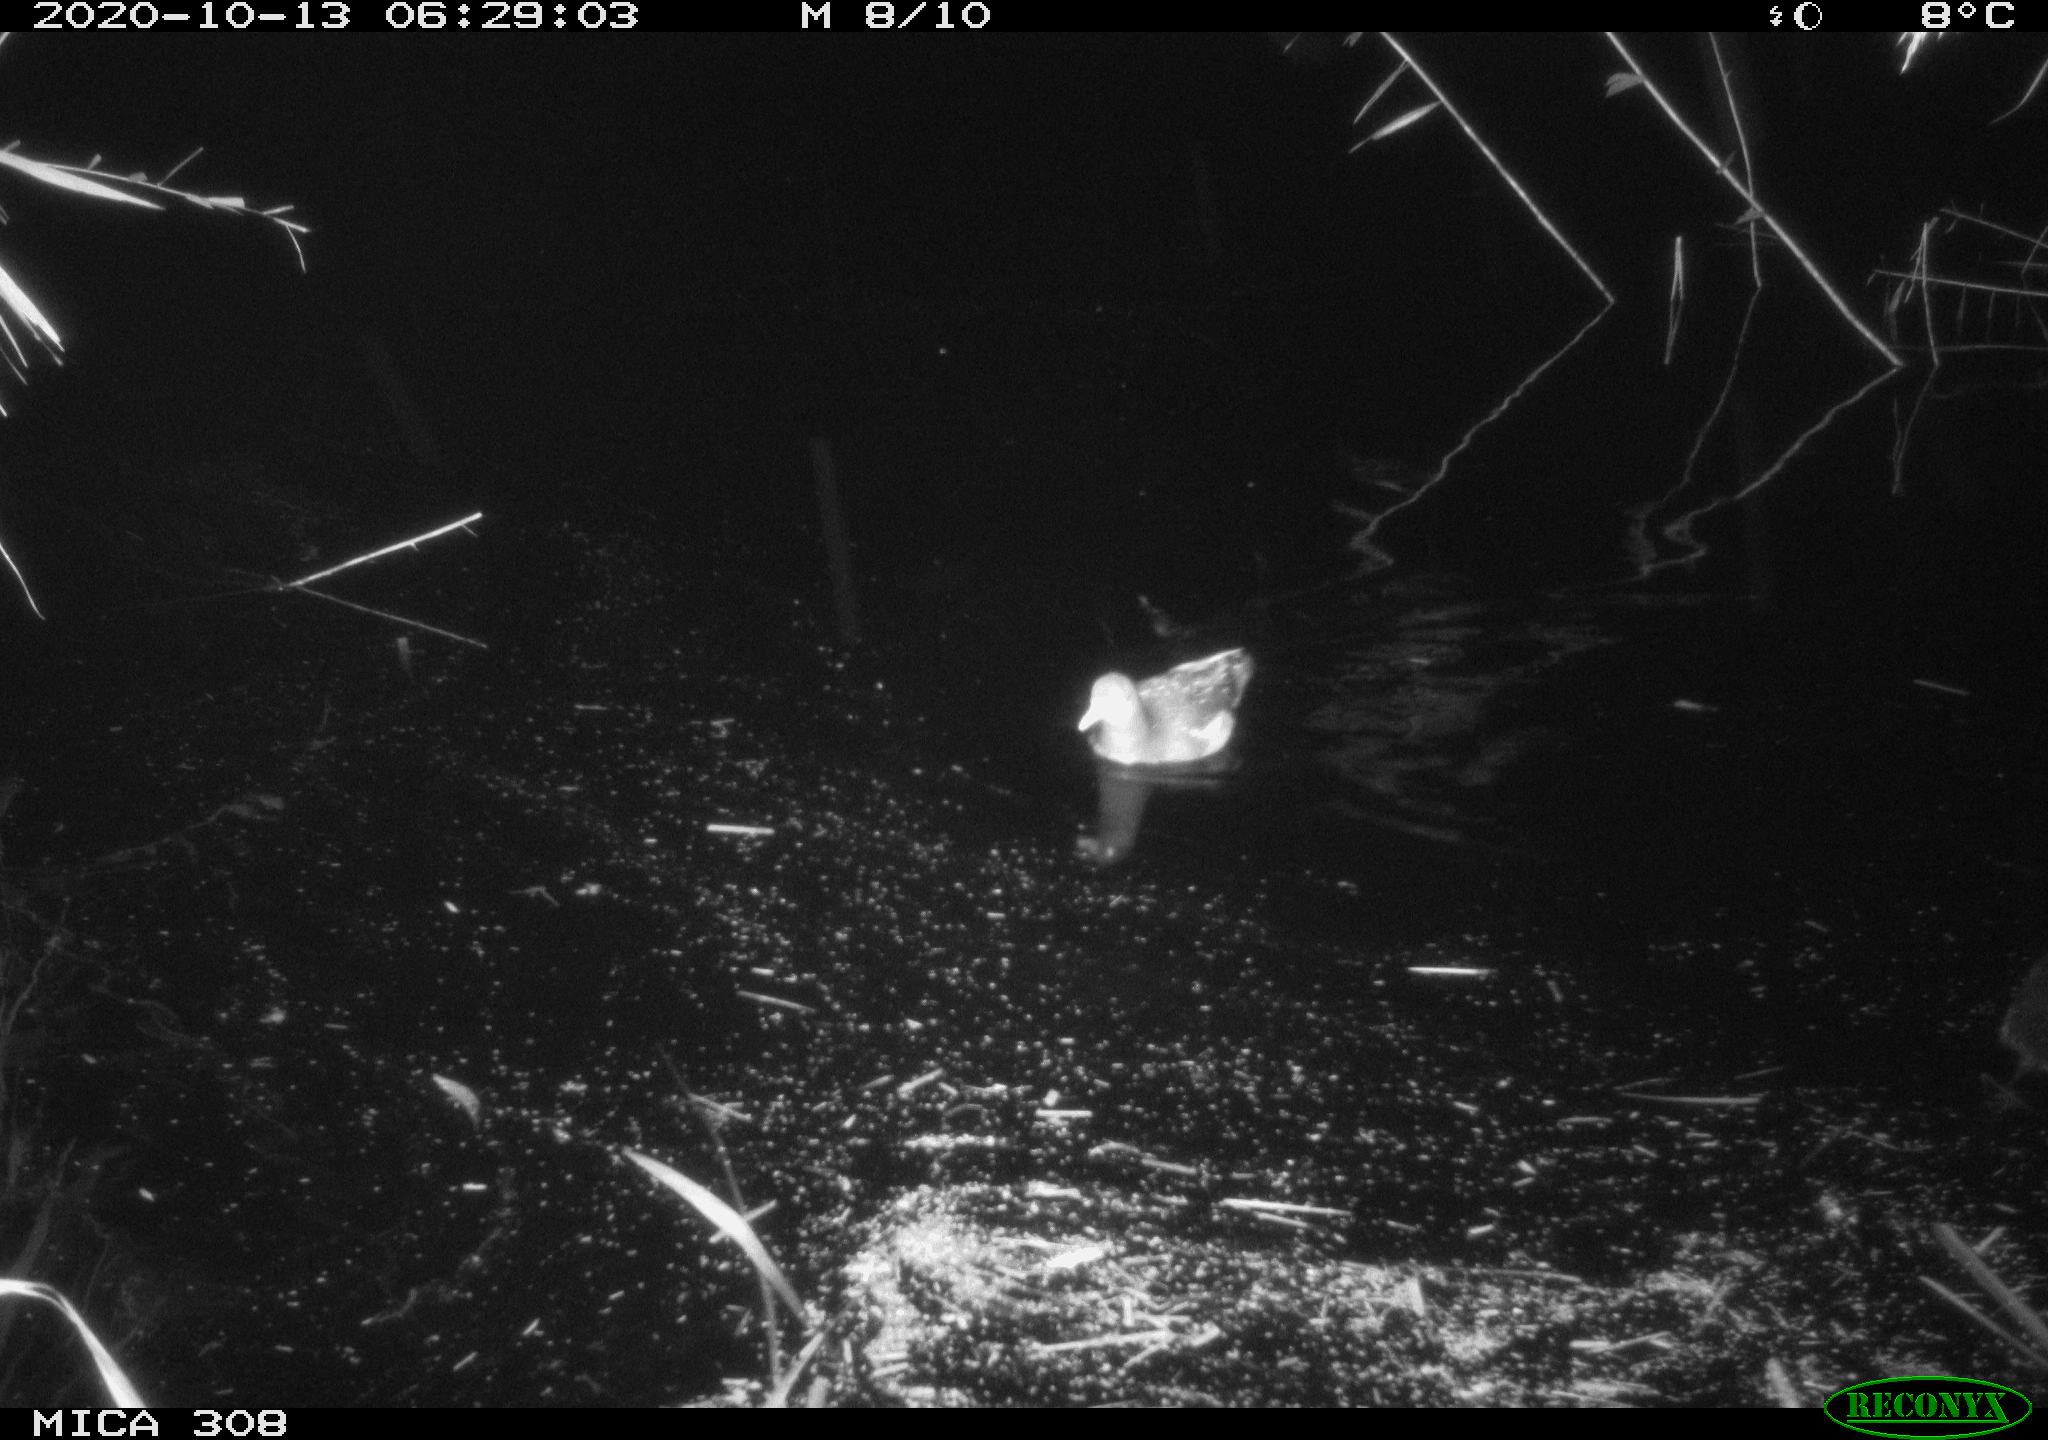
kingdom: Animalia
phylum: Chordata
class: Aves
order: Gruiformes
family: Rallidae
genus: Gallinula
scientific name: Gallinula chloropus
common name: Common moorhen
